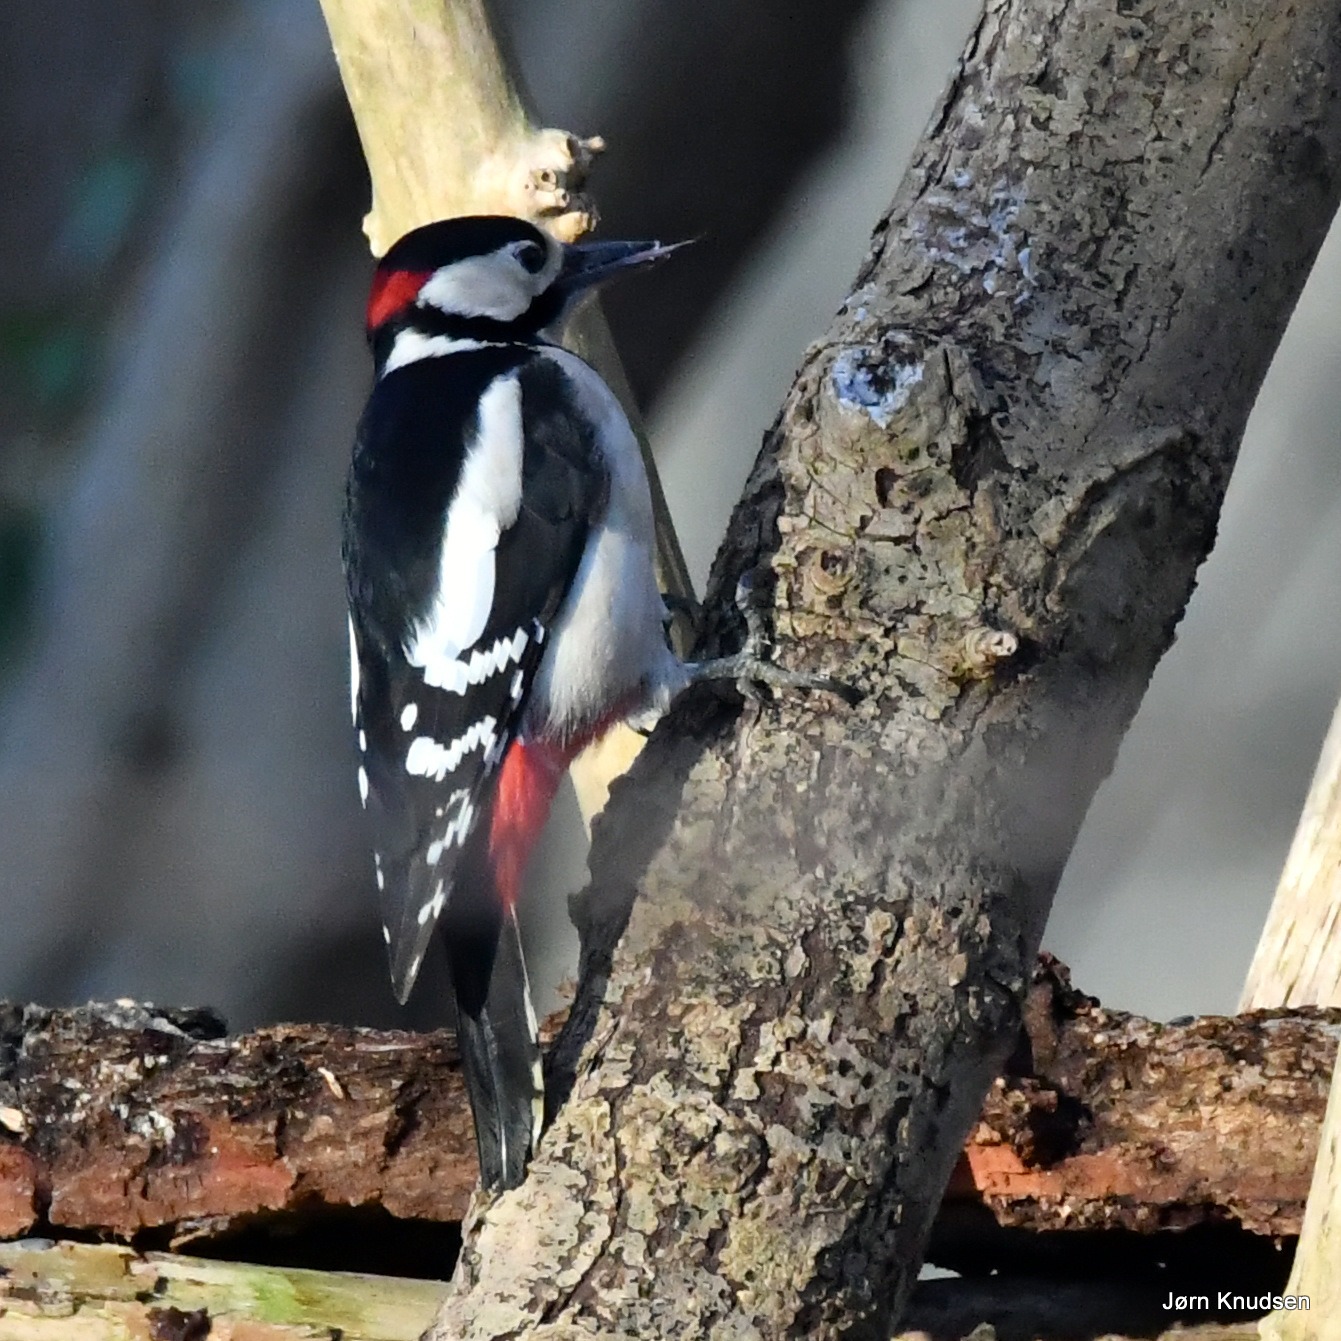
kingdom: Animalia
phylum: Chordata
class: Aves
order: Piciformes
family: Picidae
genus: Dendrocopos
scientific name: Dendrocopos major
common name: Stor flagspætte
